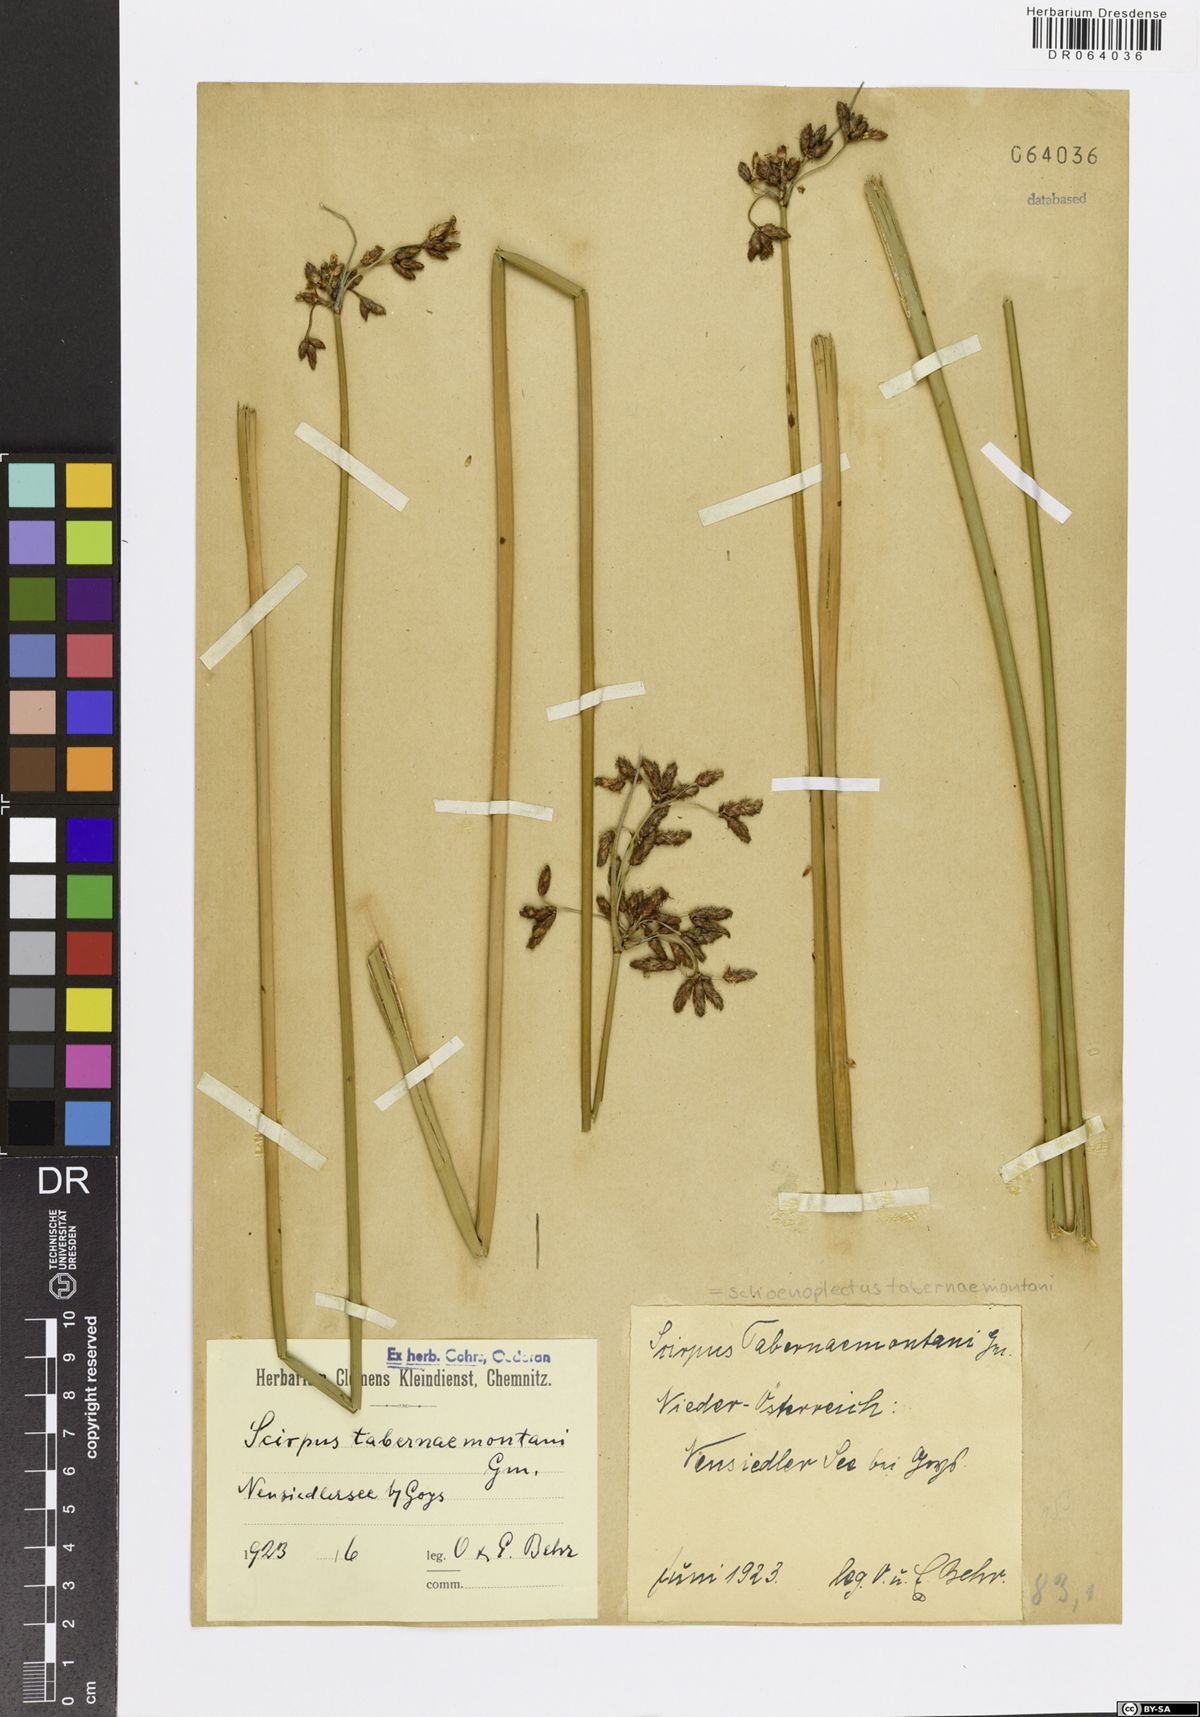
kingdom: Plantae
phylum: Tracheophyta
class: Liliopsida
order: Poales
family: Cyperaceae
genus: Schoenoplectus
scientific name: Schoenoplectus tabernaemontani
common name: Grey club-rush
